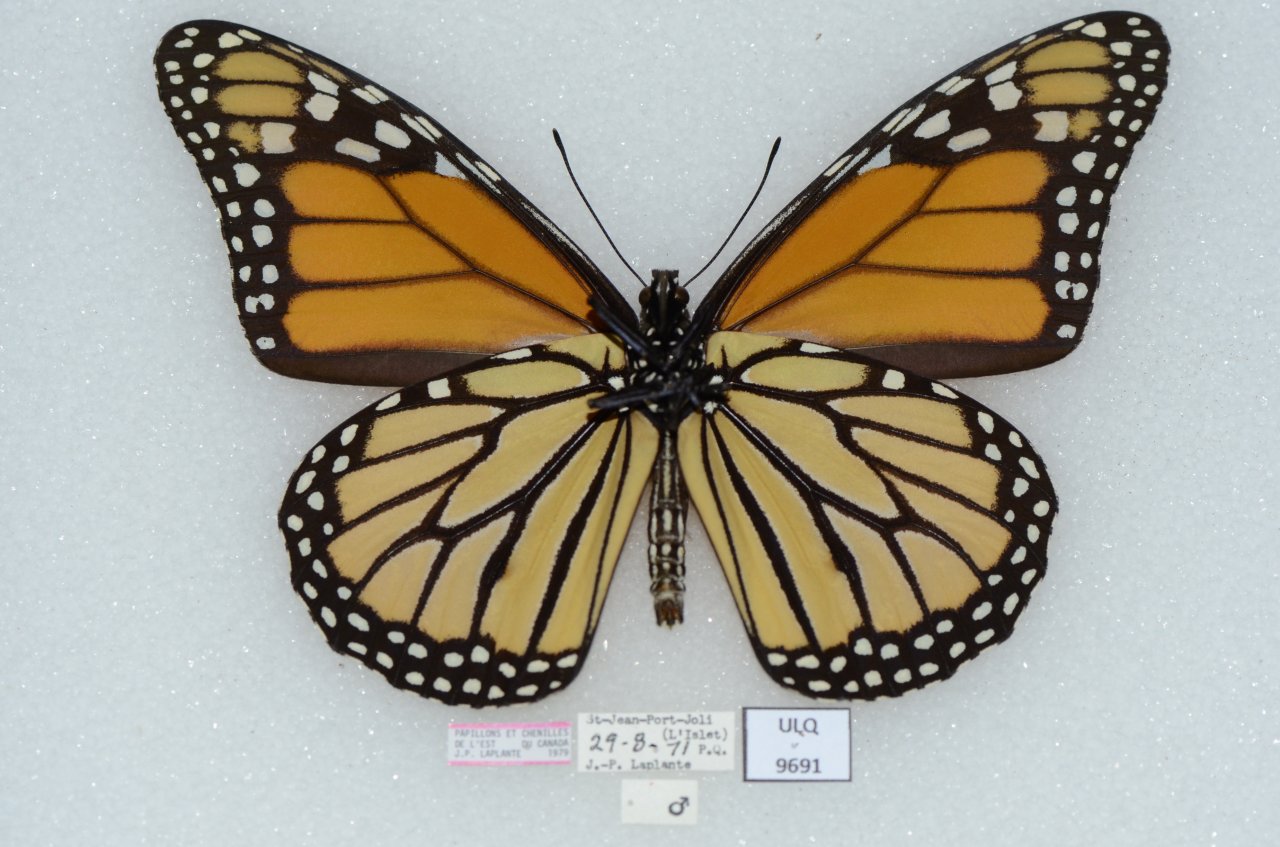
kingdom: Animalia
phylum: Arthropoda
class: Insecta
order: Lepidoptera
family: Nymphalidae
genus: Danaus
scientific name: Danaus plexippus
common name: Monarch
